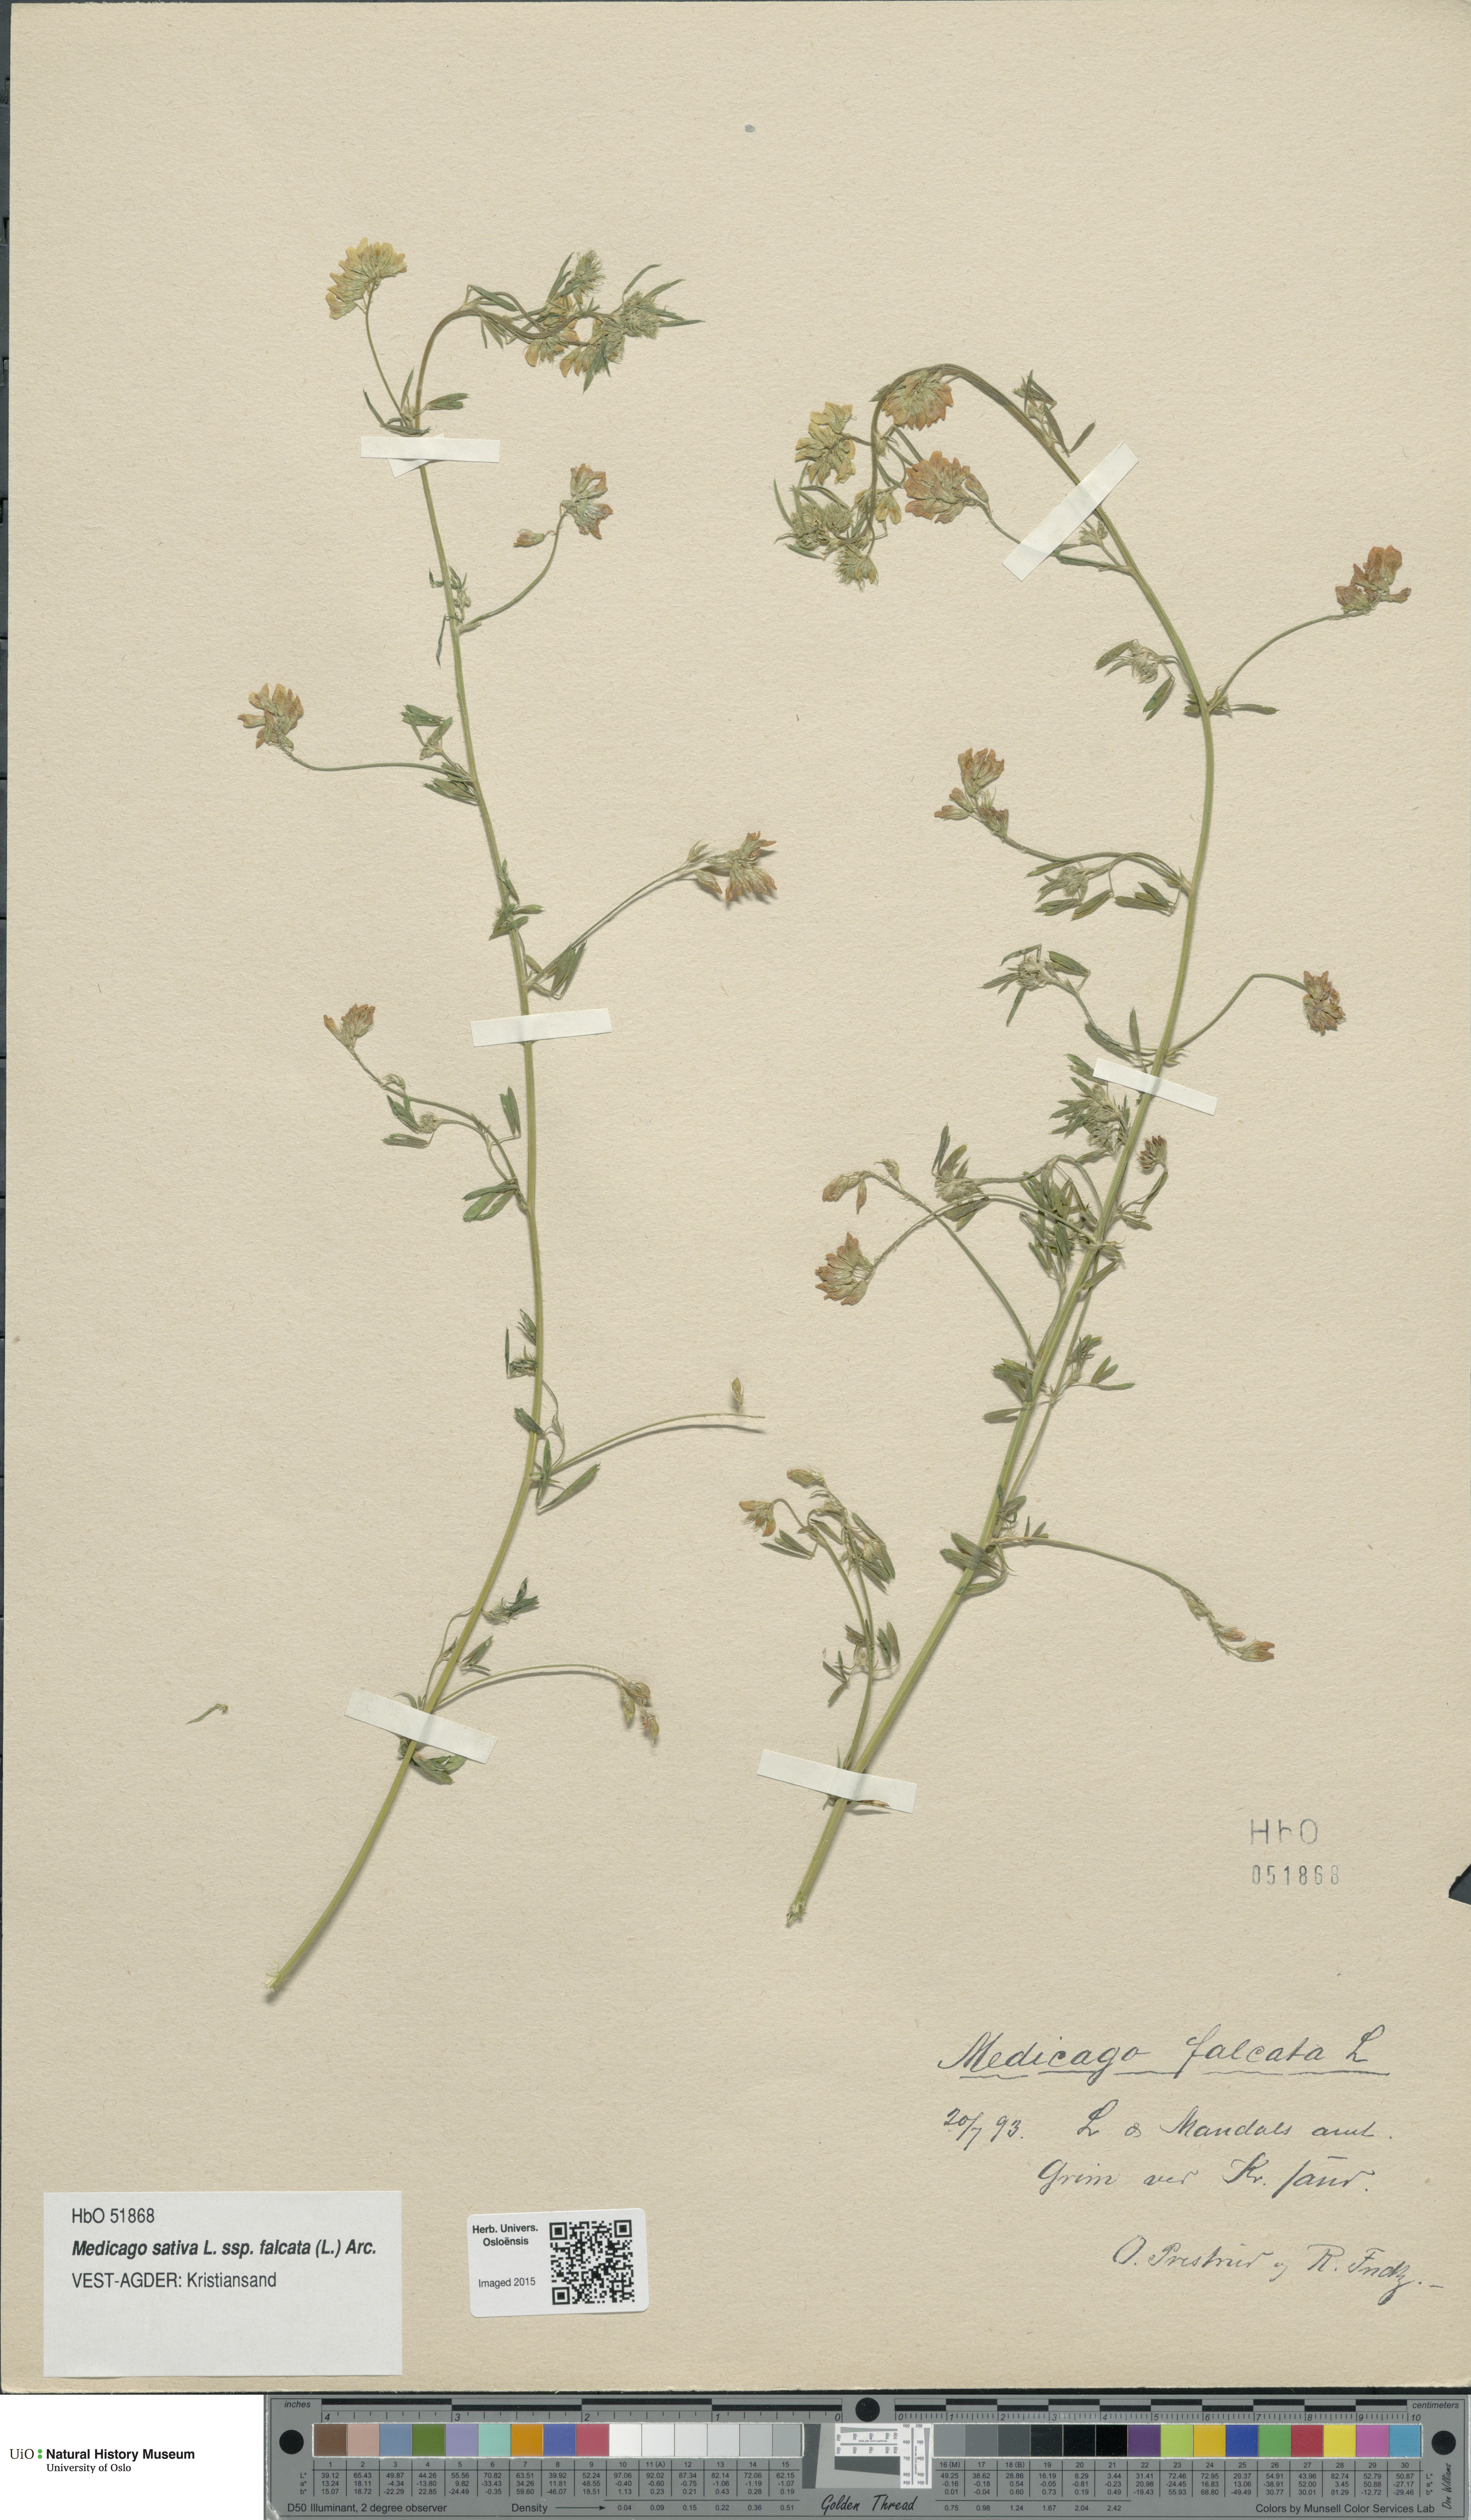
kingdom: Plantae
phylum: Tracheophyta
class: Magnoliopsida
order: Fabales
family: Fabaceae
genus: Medicago
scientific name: Medicago falcata
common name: Sickle medick
